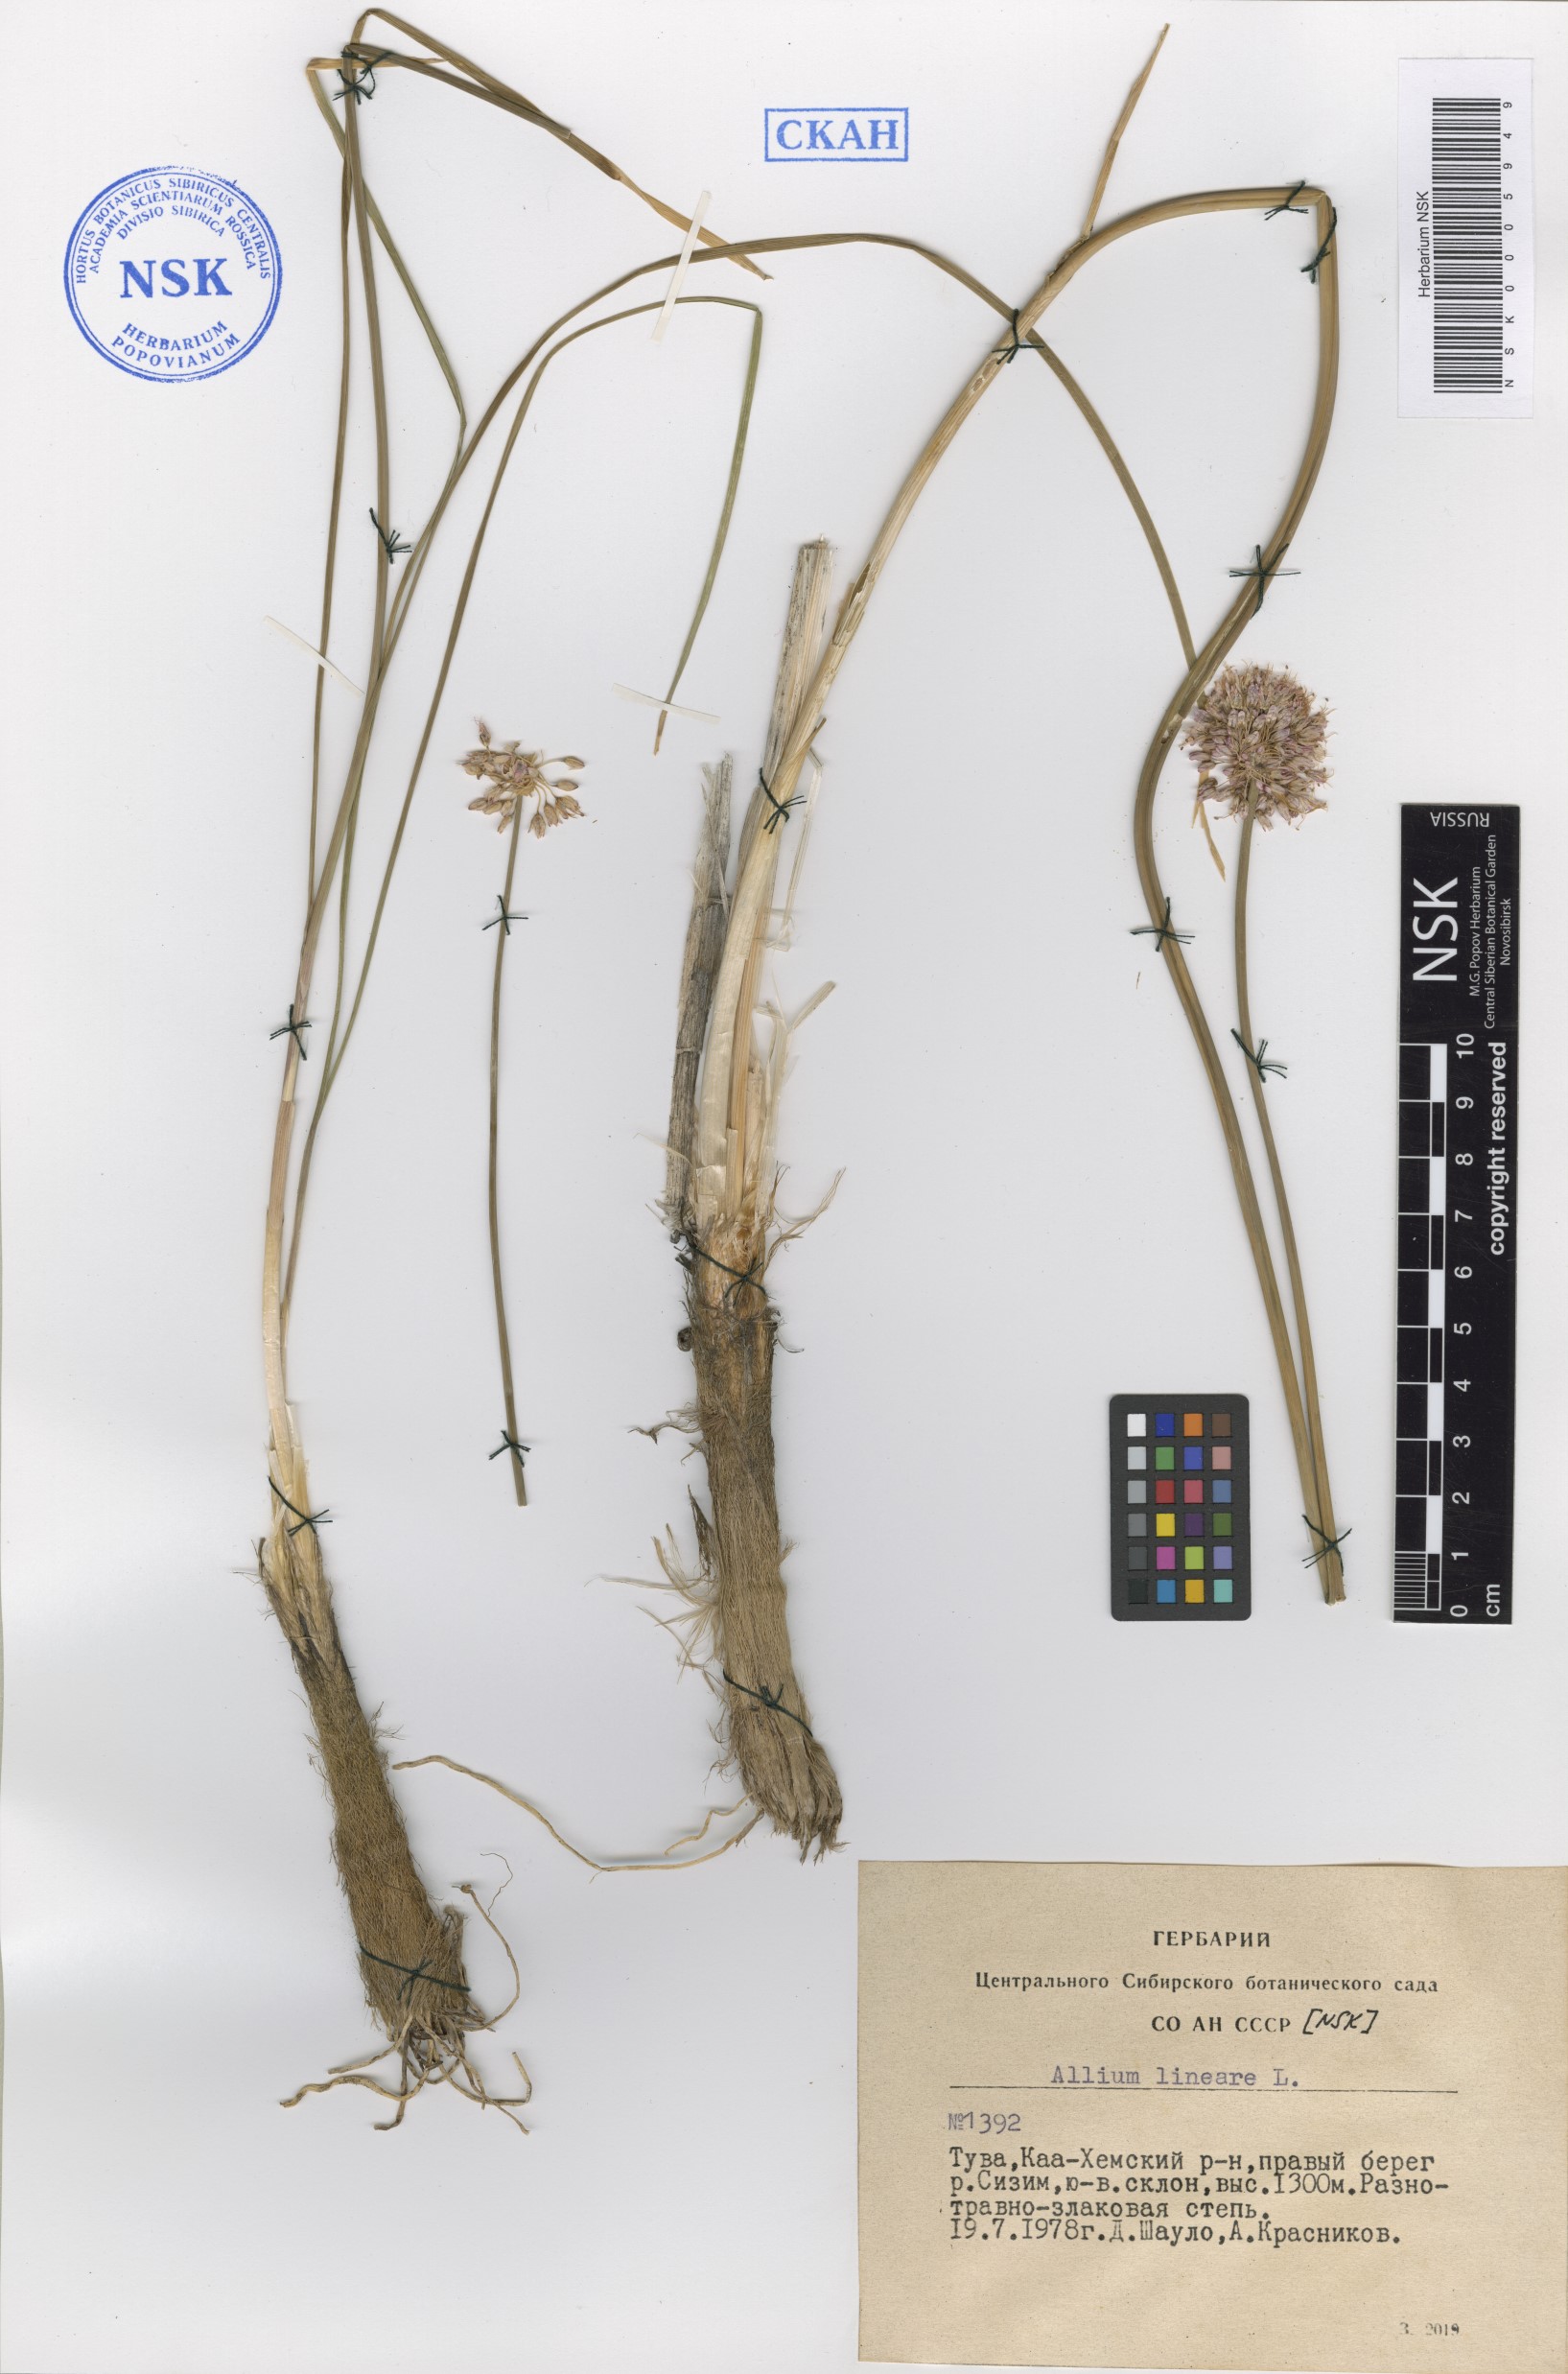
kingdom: Plantae
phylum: Tracheophyta
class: Liliopsida
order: Asparagales
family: Amaryllidaceae
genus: Allium
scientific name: Allium lineare
